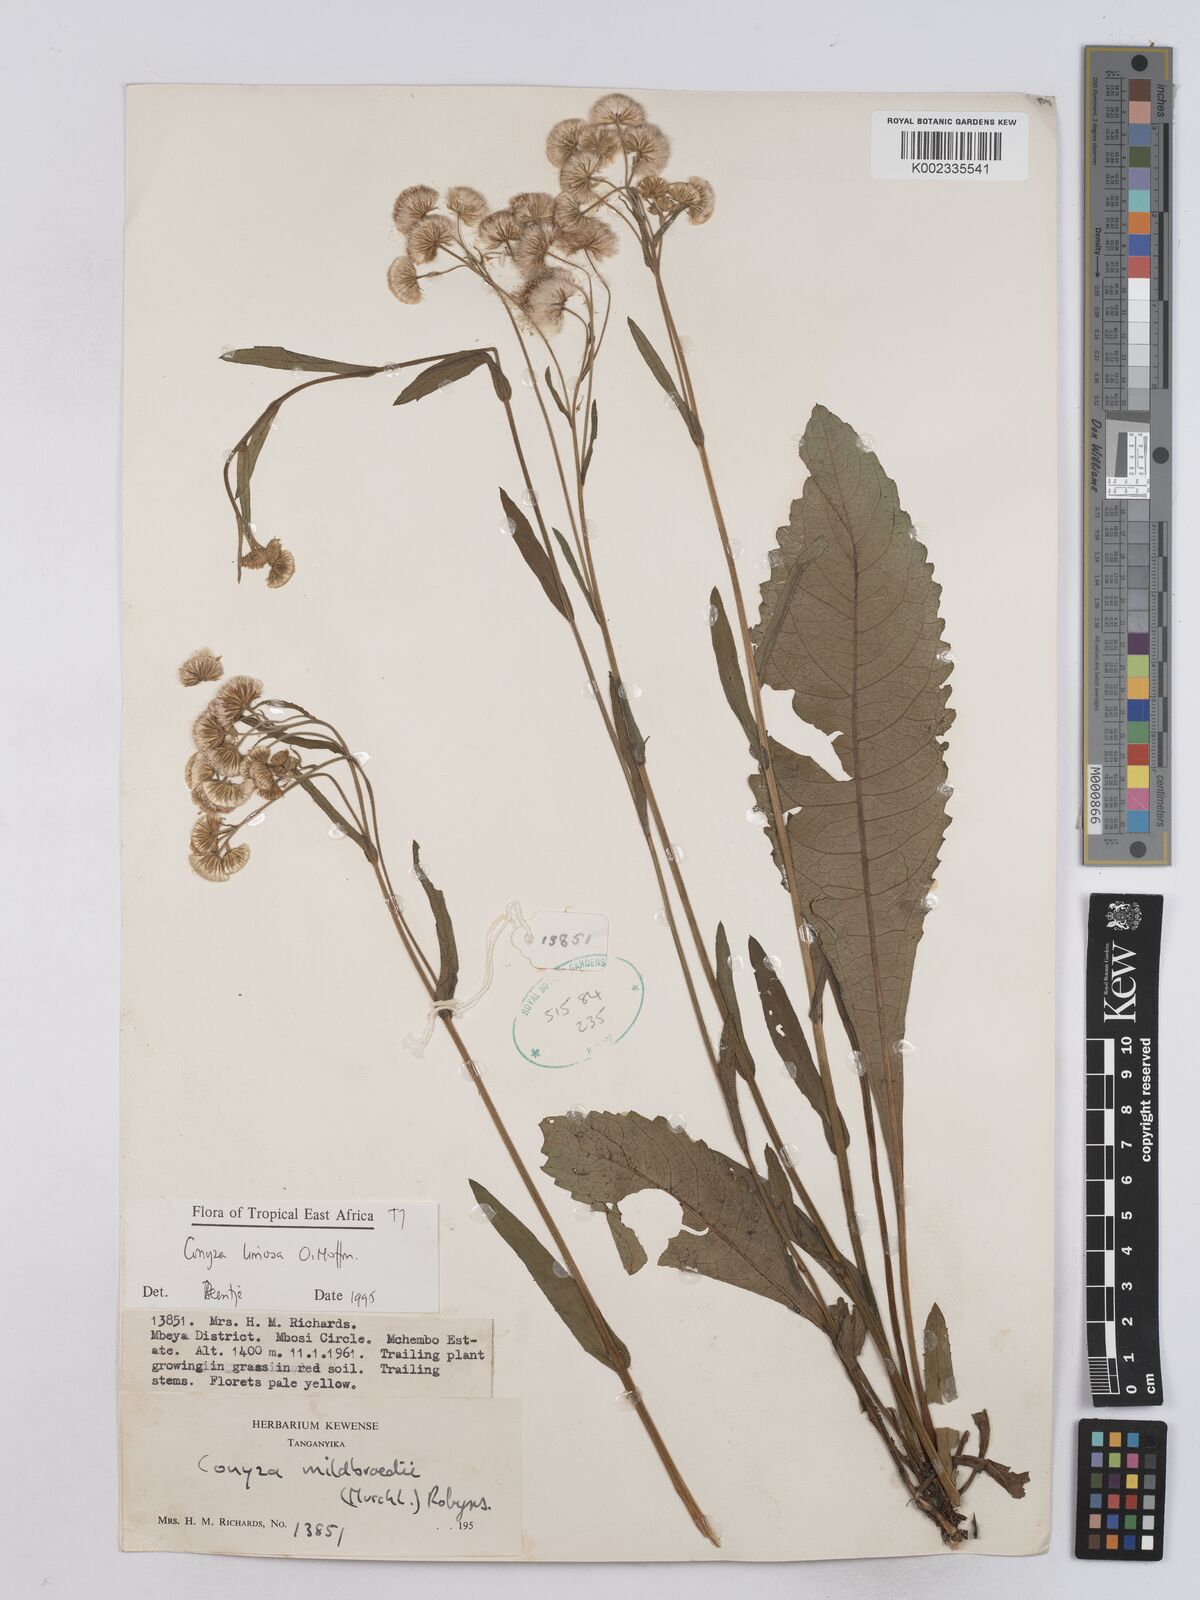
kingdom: Plantae
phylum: Tracheophyta
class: Magnoliopsida
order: Asterales
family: Asteraceae
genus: Conyza
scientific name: Conyza limosa
